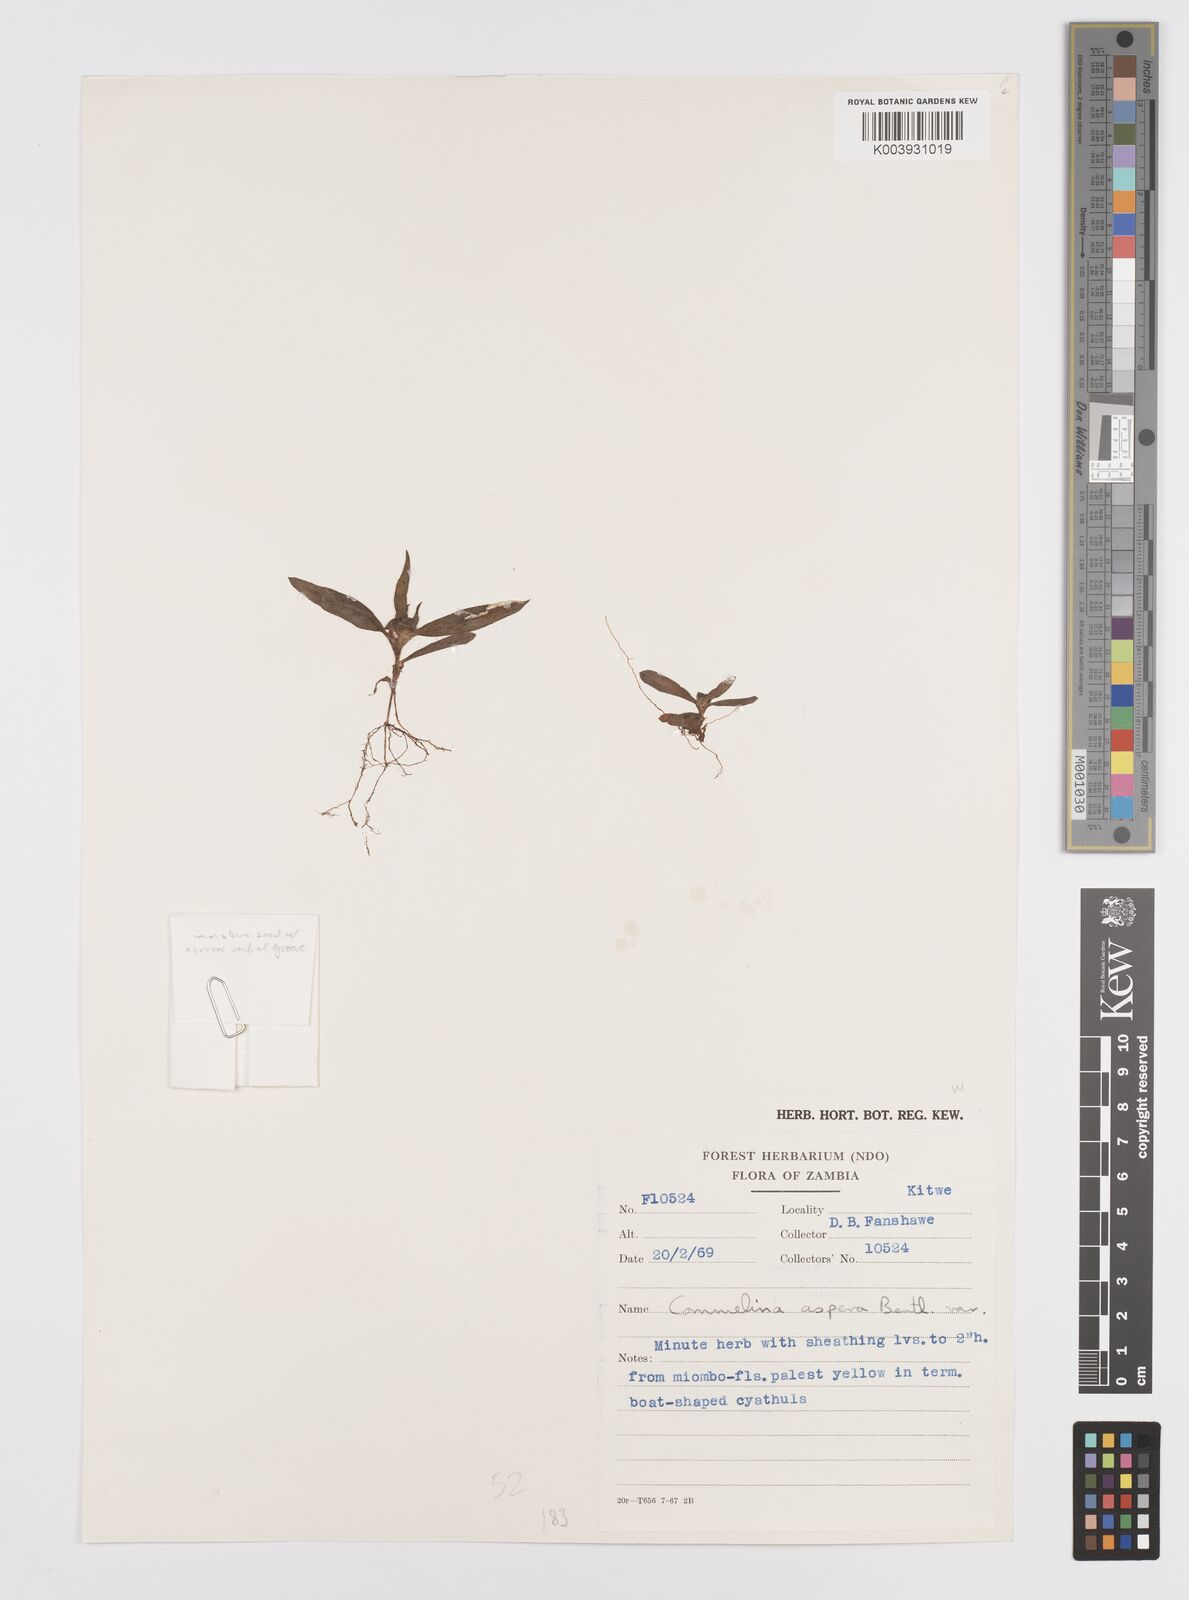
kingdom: Plantae
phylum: Tracheophyta
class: Liliopsida
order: Commelinales
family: Commelinaceae
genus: Commelina
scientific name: Commelina aspera
